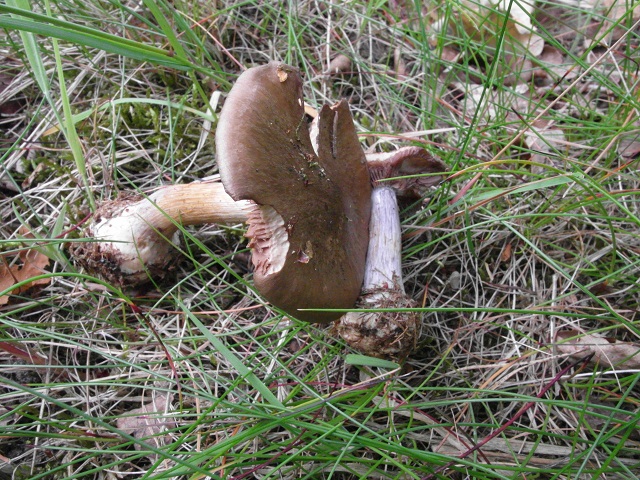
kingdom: Fungi
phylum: Basidiomycota
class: Agaricomycetes
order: Agaricales
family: Cortinariaceae
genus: Thaxterogaster
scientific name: Thaxterogaster sphagnophilus
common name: vandplettet slørhat
